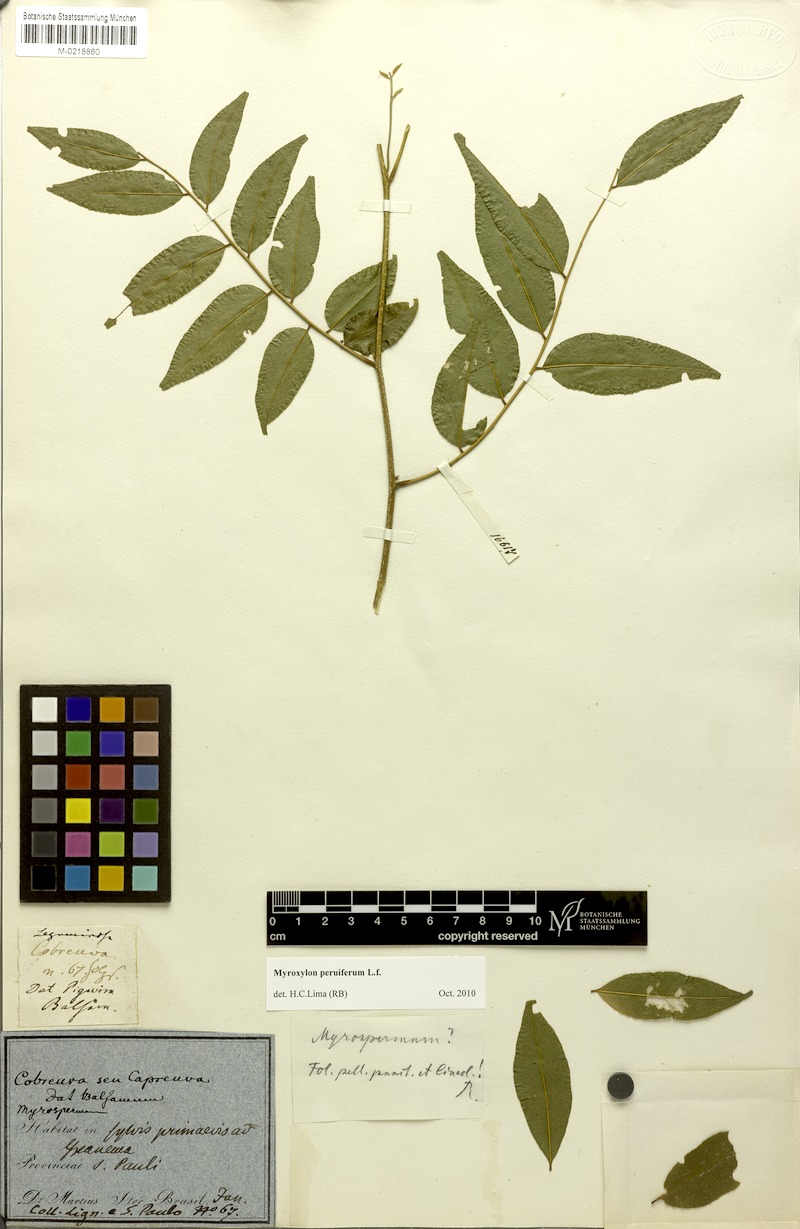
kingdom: Plantae
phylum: Tracheophyta
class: Magnoliopsida
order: Fabales
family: Fabaceae
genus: Myroxylon
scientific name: Myroxylon peruiferum
